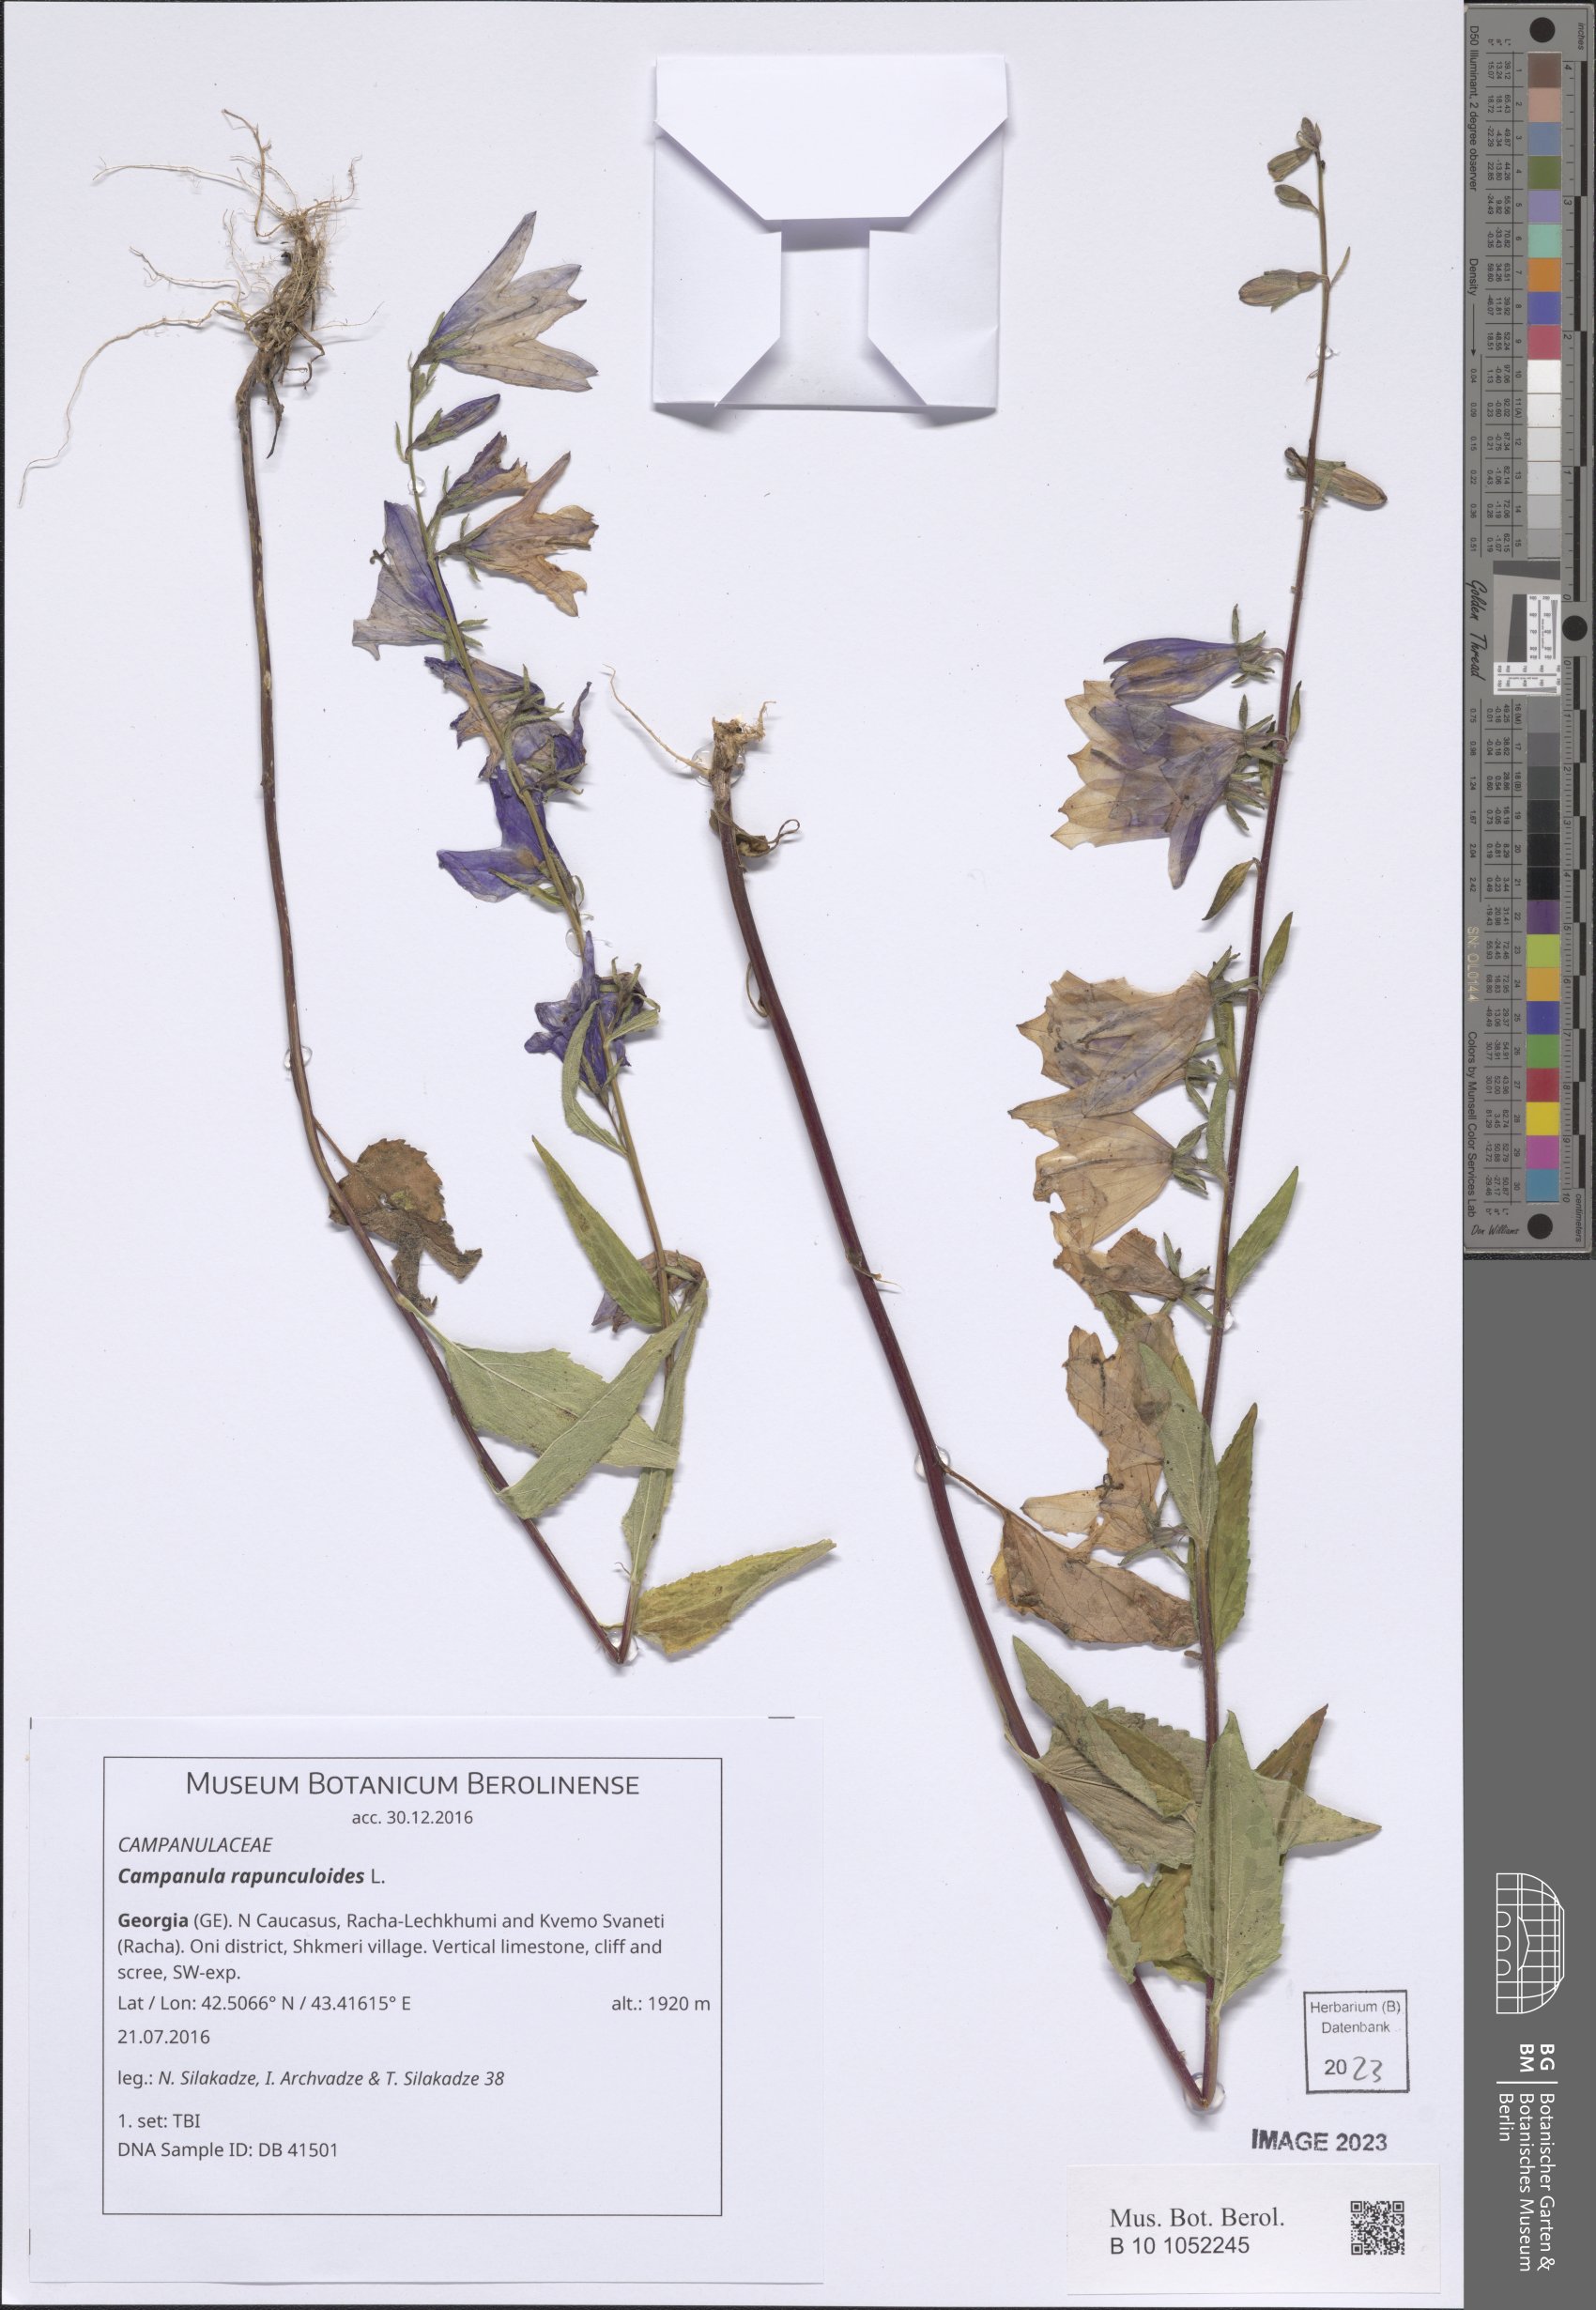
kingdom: Plantae
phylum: Tracheophyta
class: Magnoliopsida
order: Asterales
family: Campanulaceae
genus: Campanula
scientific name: Campanula rapunculoides
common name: Creeping bellflower
